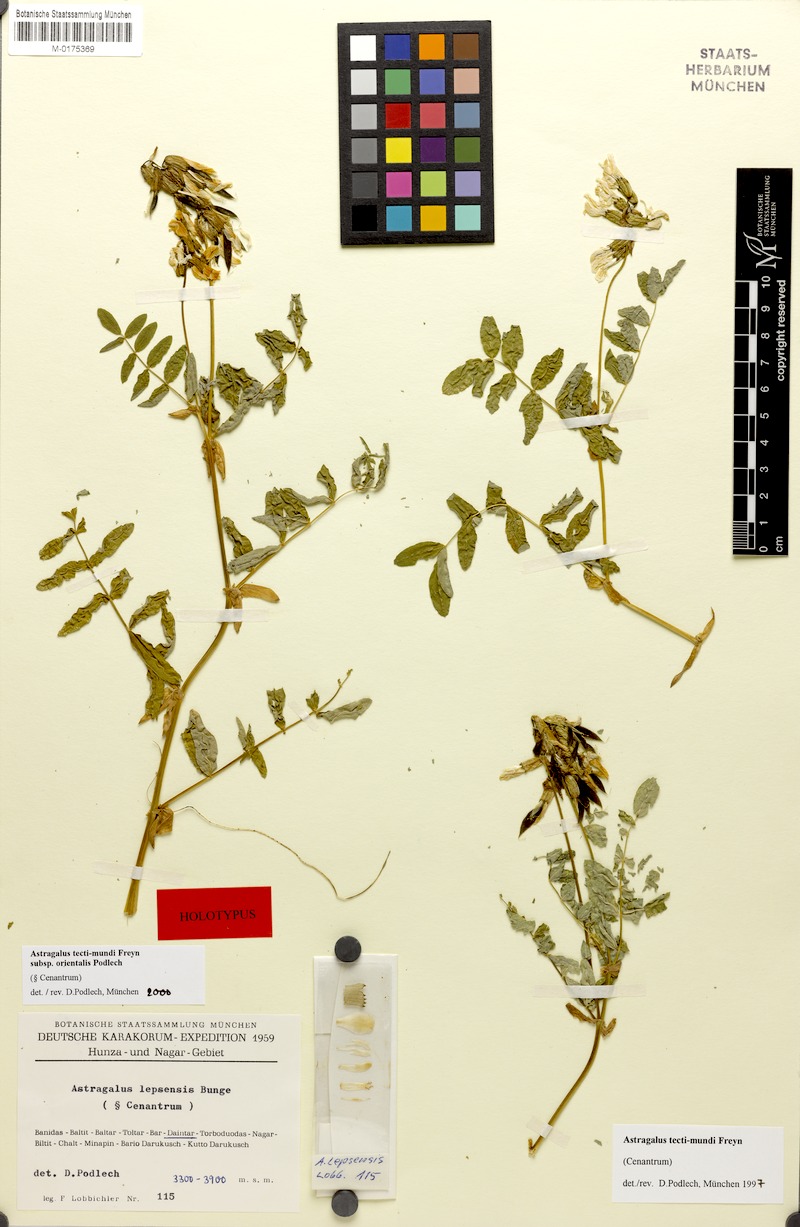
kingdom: Plantae
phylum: Tracheophyta
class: Magnoliopsida
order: Fabales
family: Fabaceae
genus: Astragalus
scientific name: Astragalus tecti-mundi
